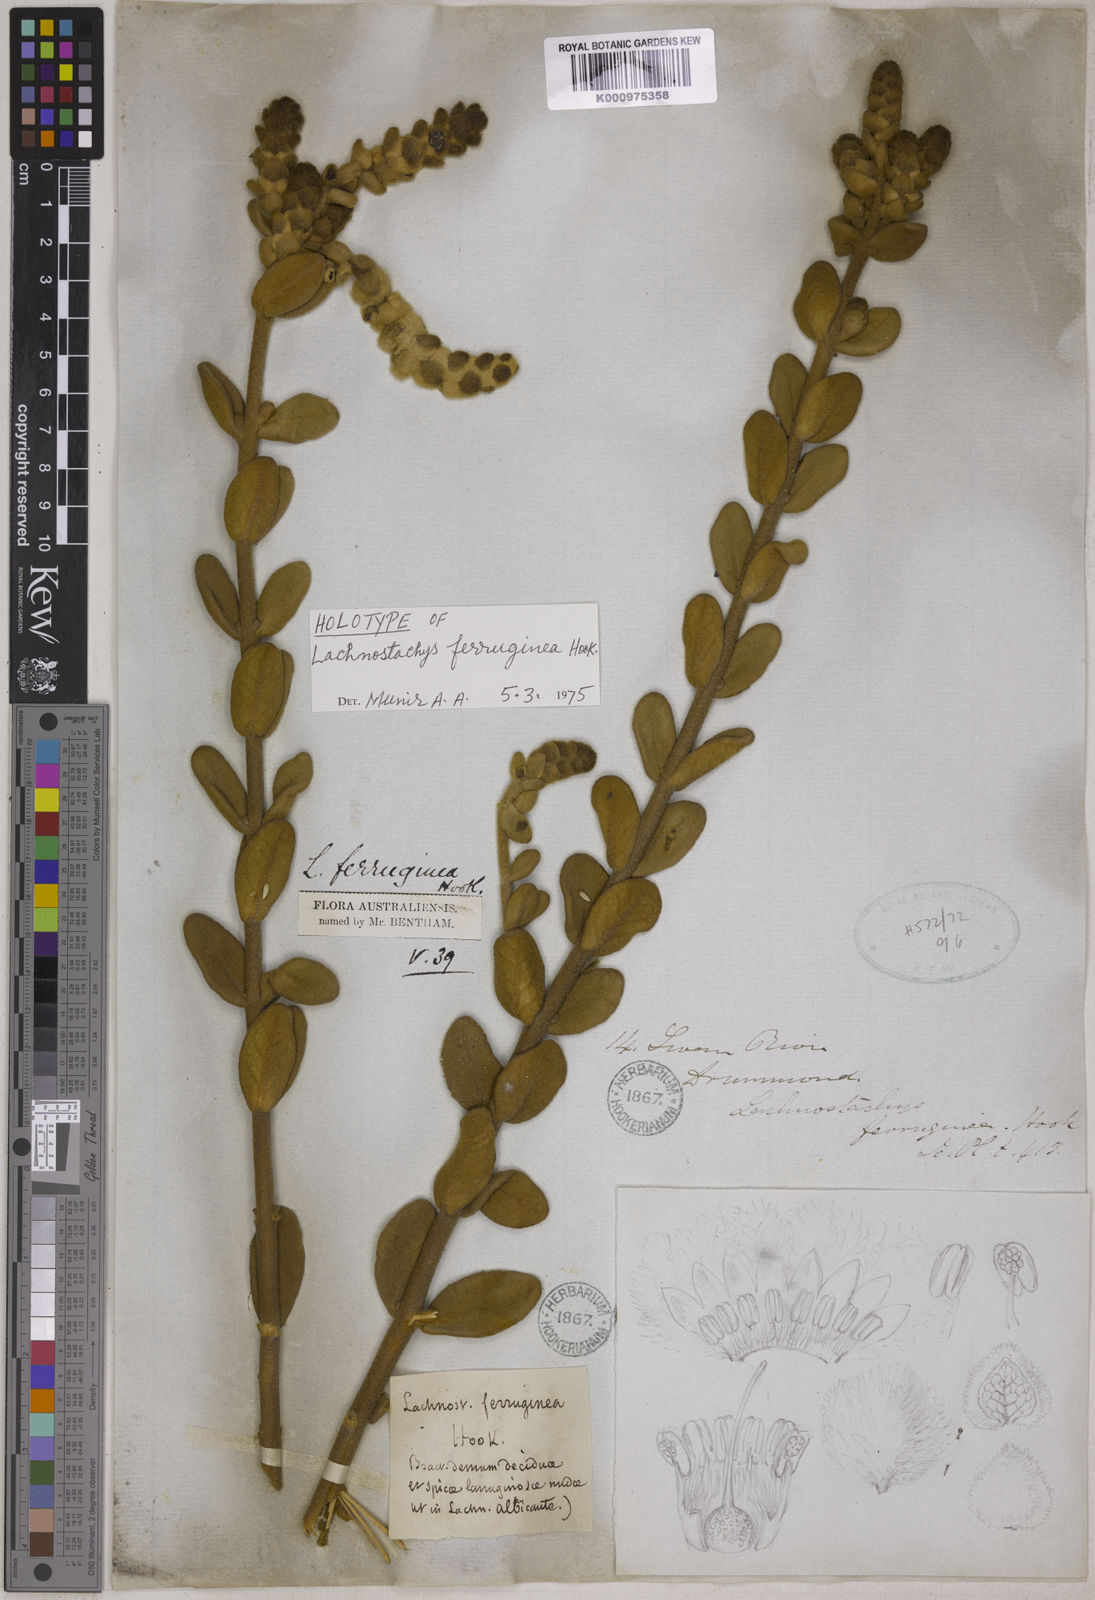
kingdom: Plantae
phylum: Tracheophyta
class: Magnoliopsida
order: Lamiales
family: Lamiaceae
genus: Lachnostachys
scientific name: Lachnostachys ferruginea
